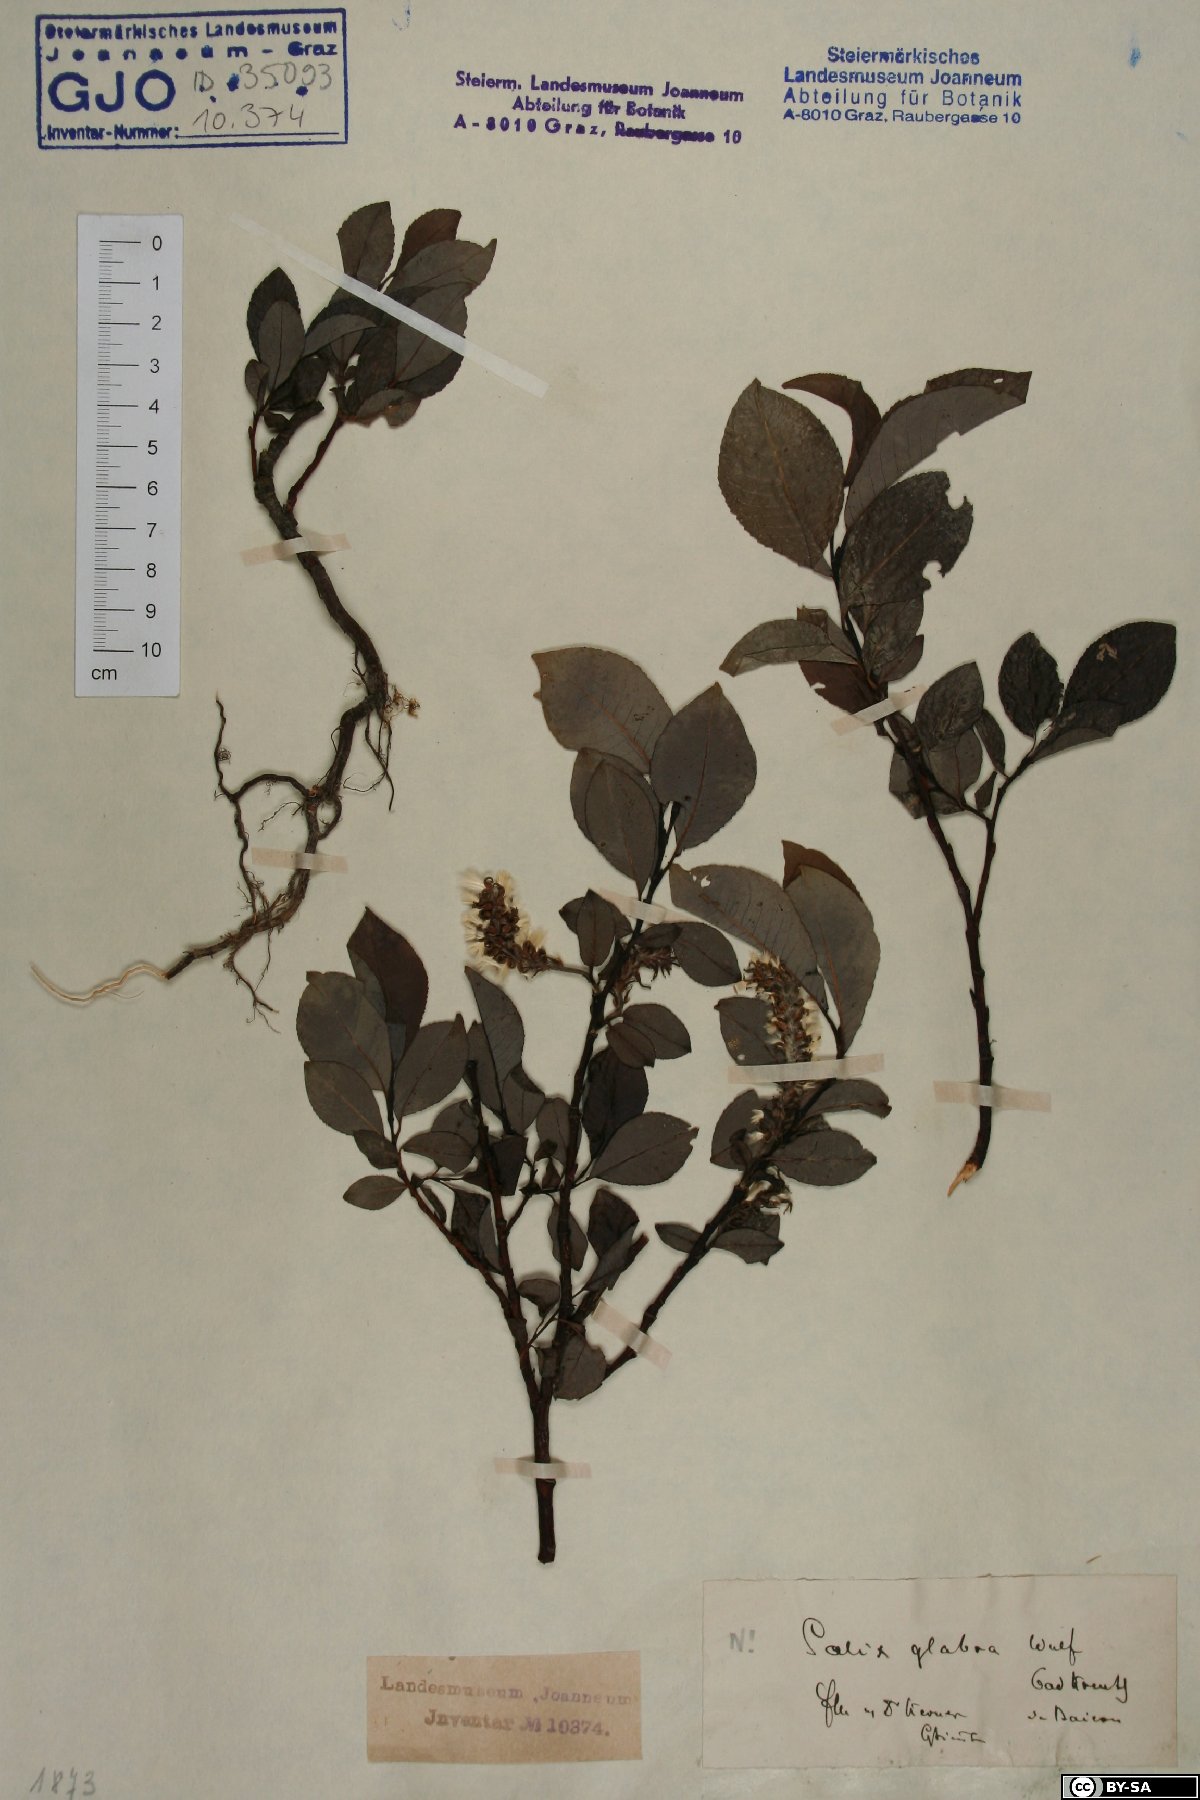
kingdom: Plantae
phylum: Tracheophyta
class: Magnoliopsida
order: Malpighiales
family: Salicaceae
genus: Salix
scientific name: Salix glabra
